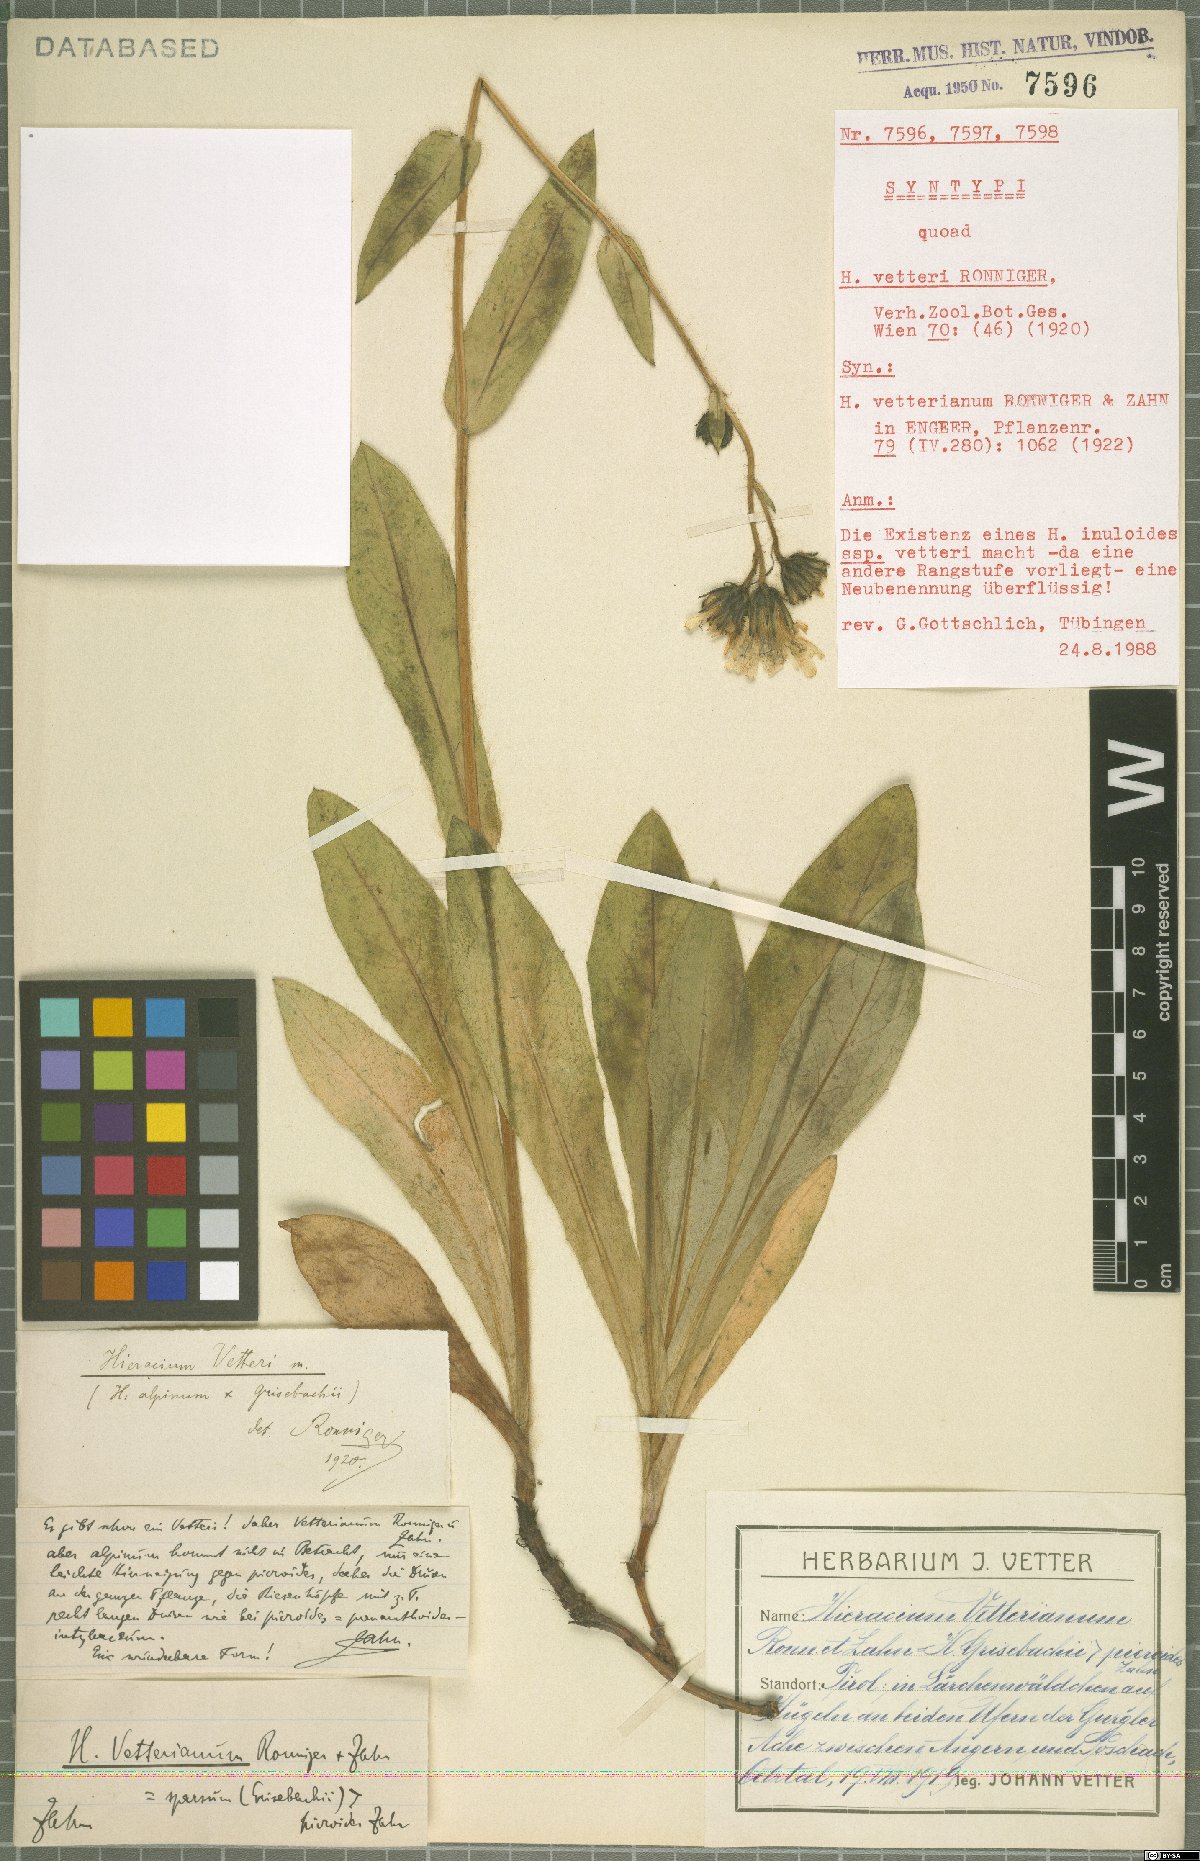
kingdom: Plantae
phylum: Tracheophyta
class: Magnoliopsida
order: Asterales
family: Asteraceae
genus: Hieracium
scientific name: Hieracium vetteri
